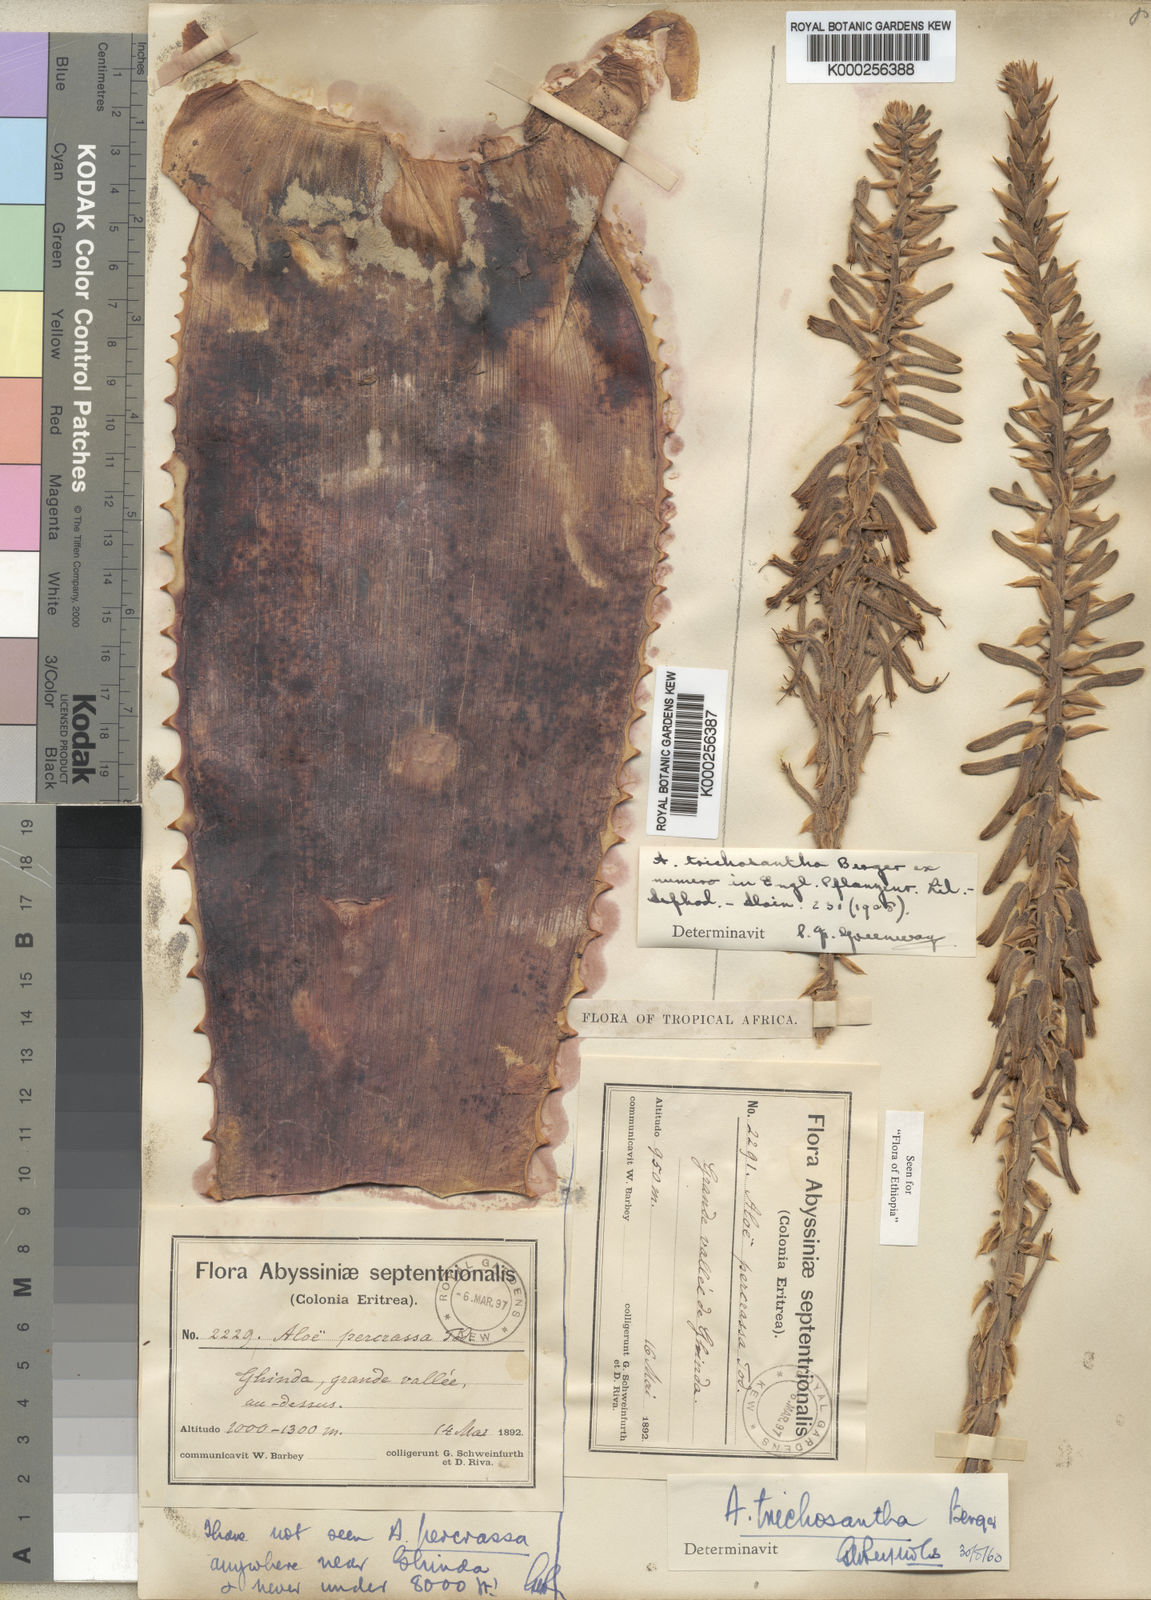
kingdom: Plantae
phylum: Tracheophyta
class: Liliopsida
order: Asparagales
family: Asphodelaceae
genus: Aloe
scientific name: Aloe trichosantha
